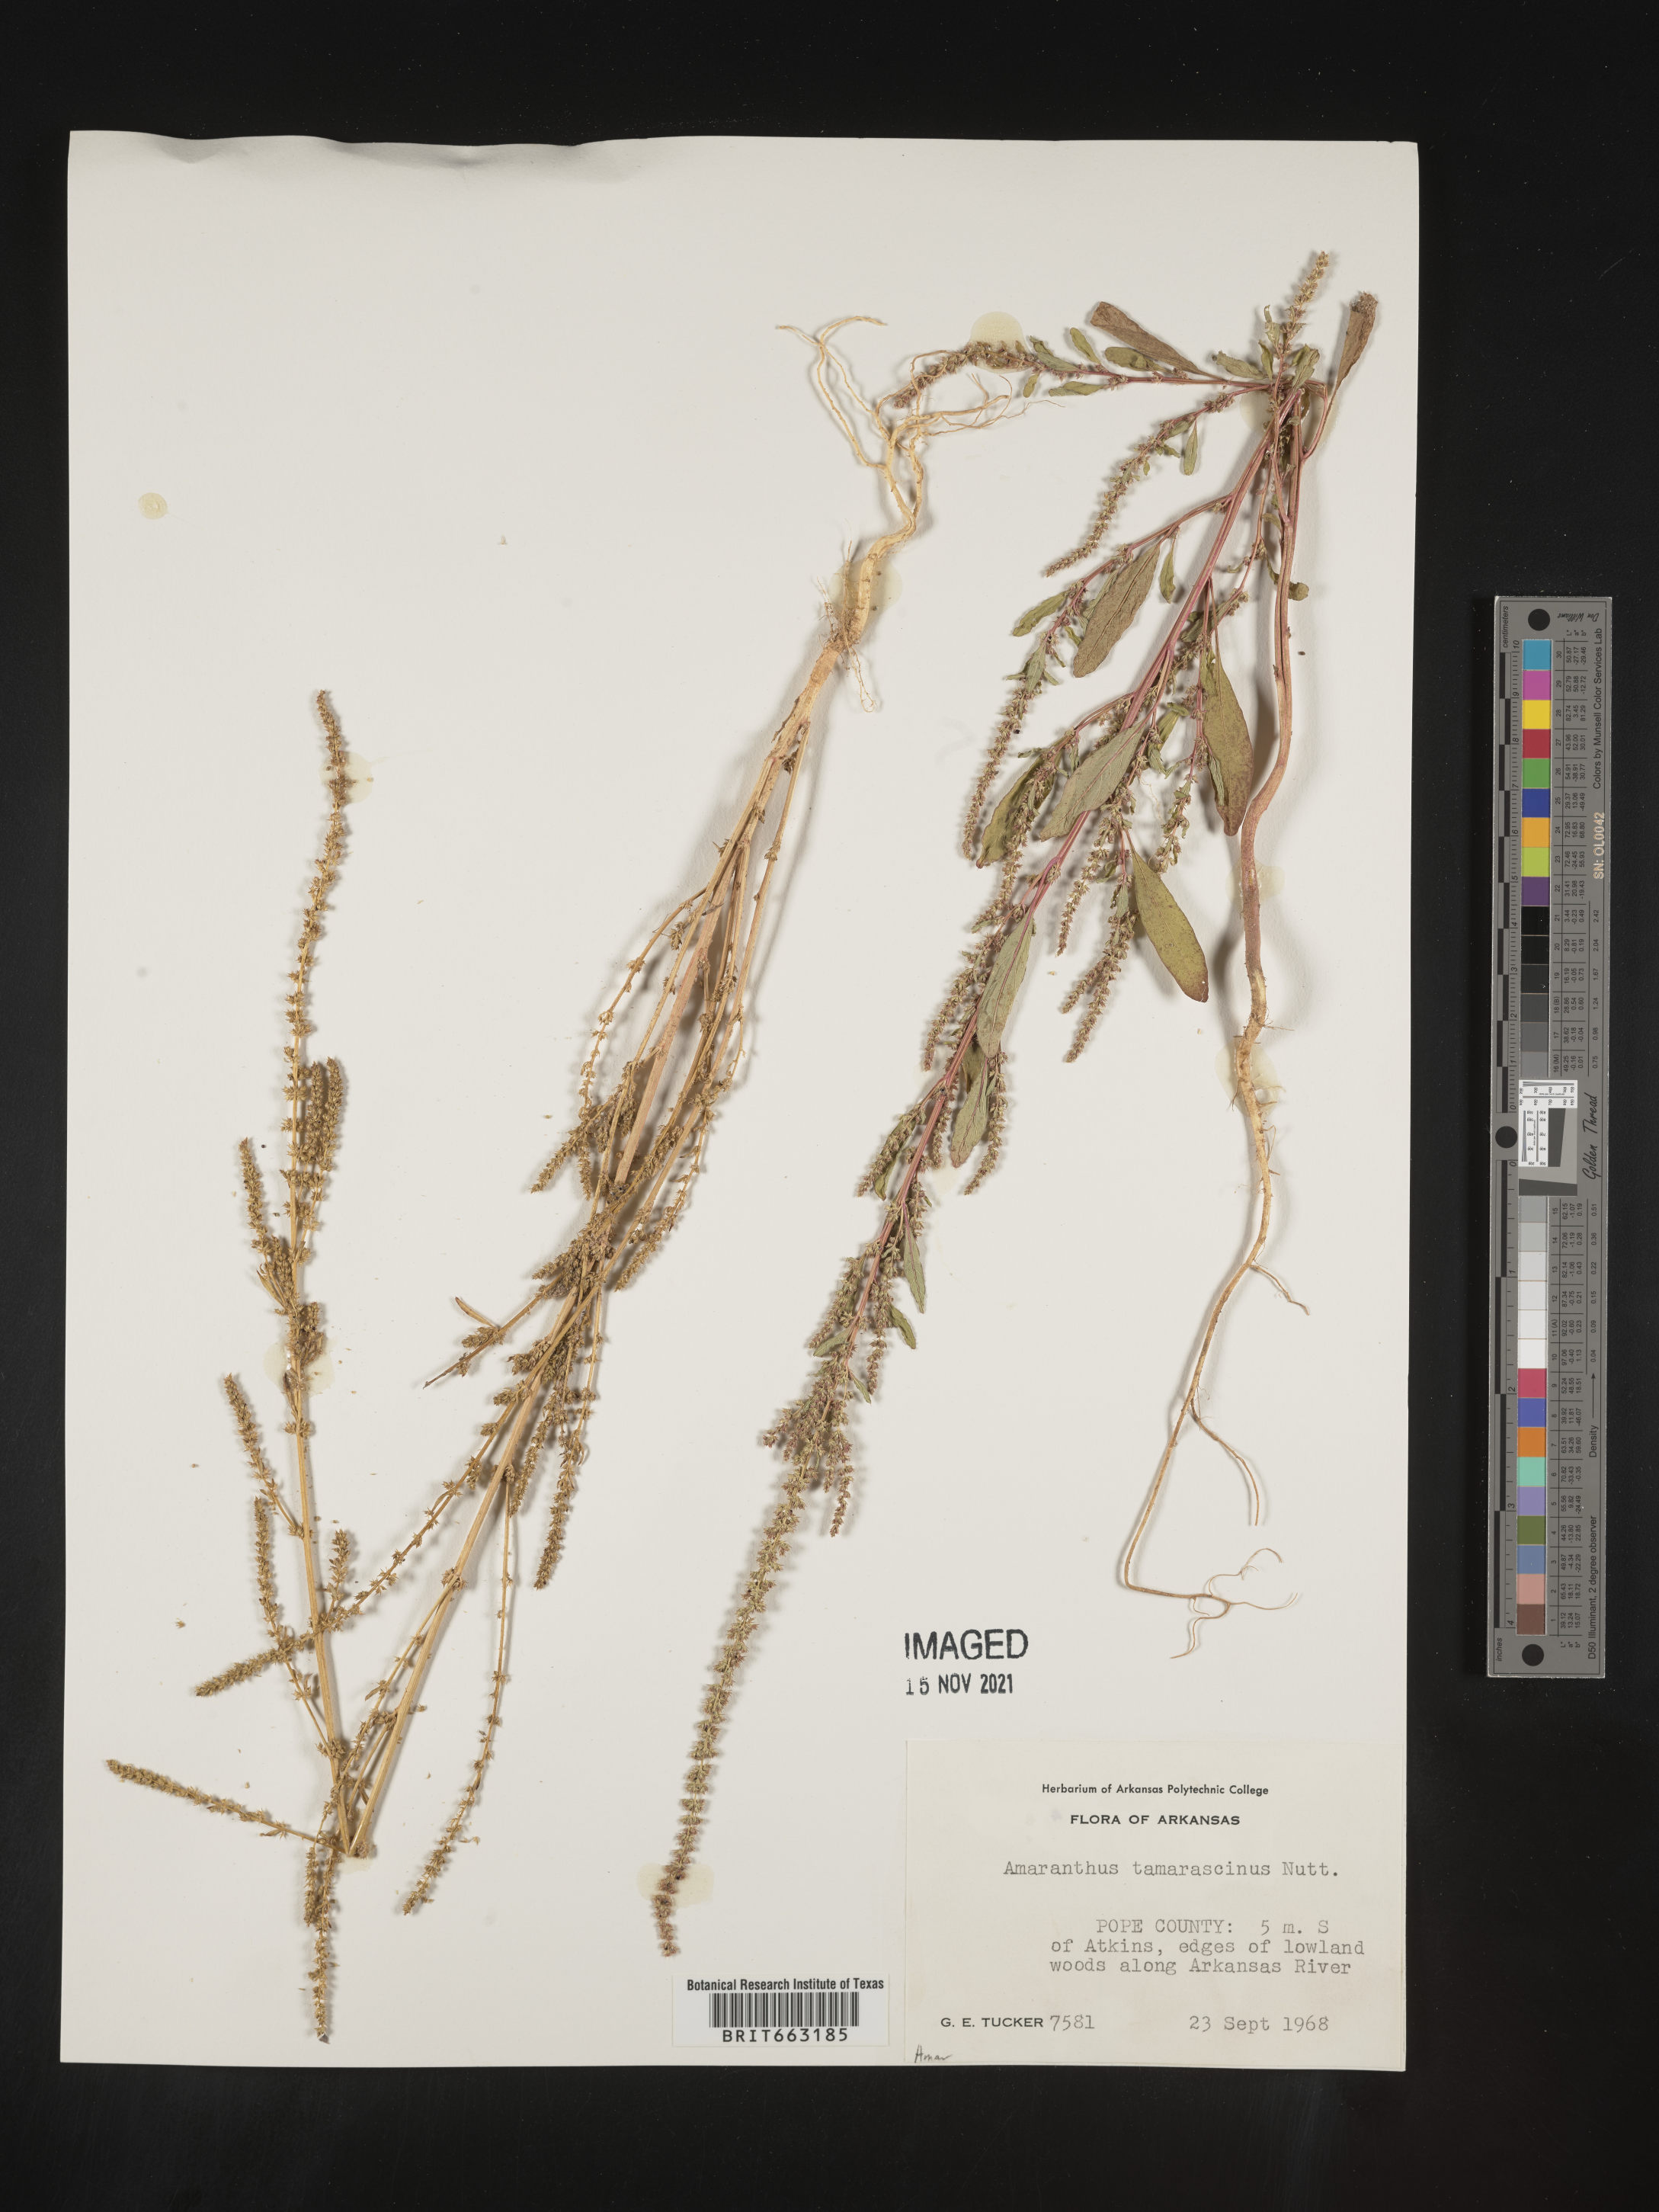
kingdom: Plantae
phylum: Tracheophyta
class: Magnoliopsida
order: Caryophyllales
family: Amaranthaceae
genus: Amaranthus
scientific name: Amaranthus tamariscinus
